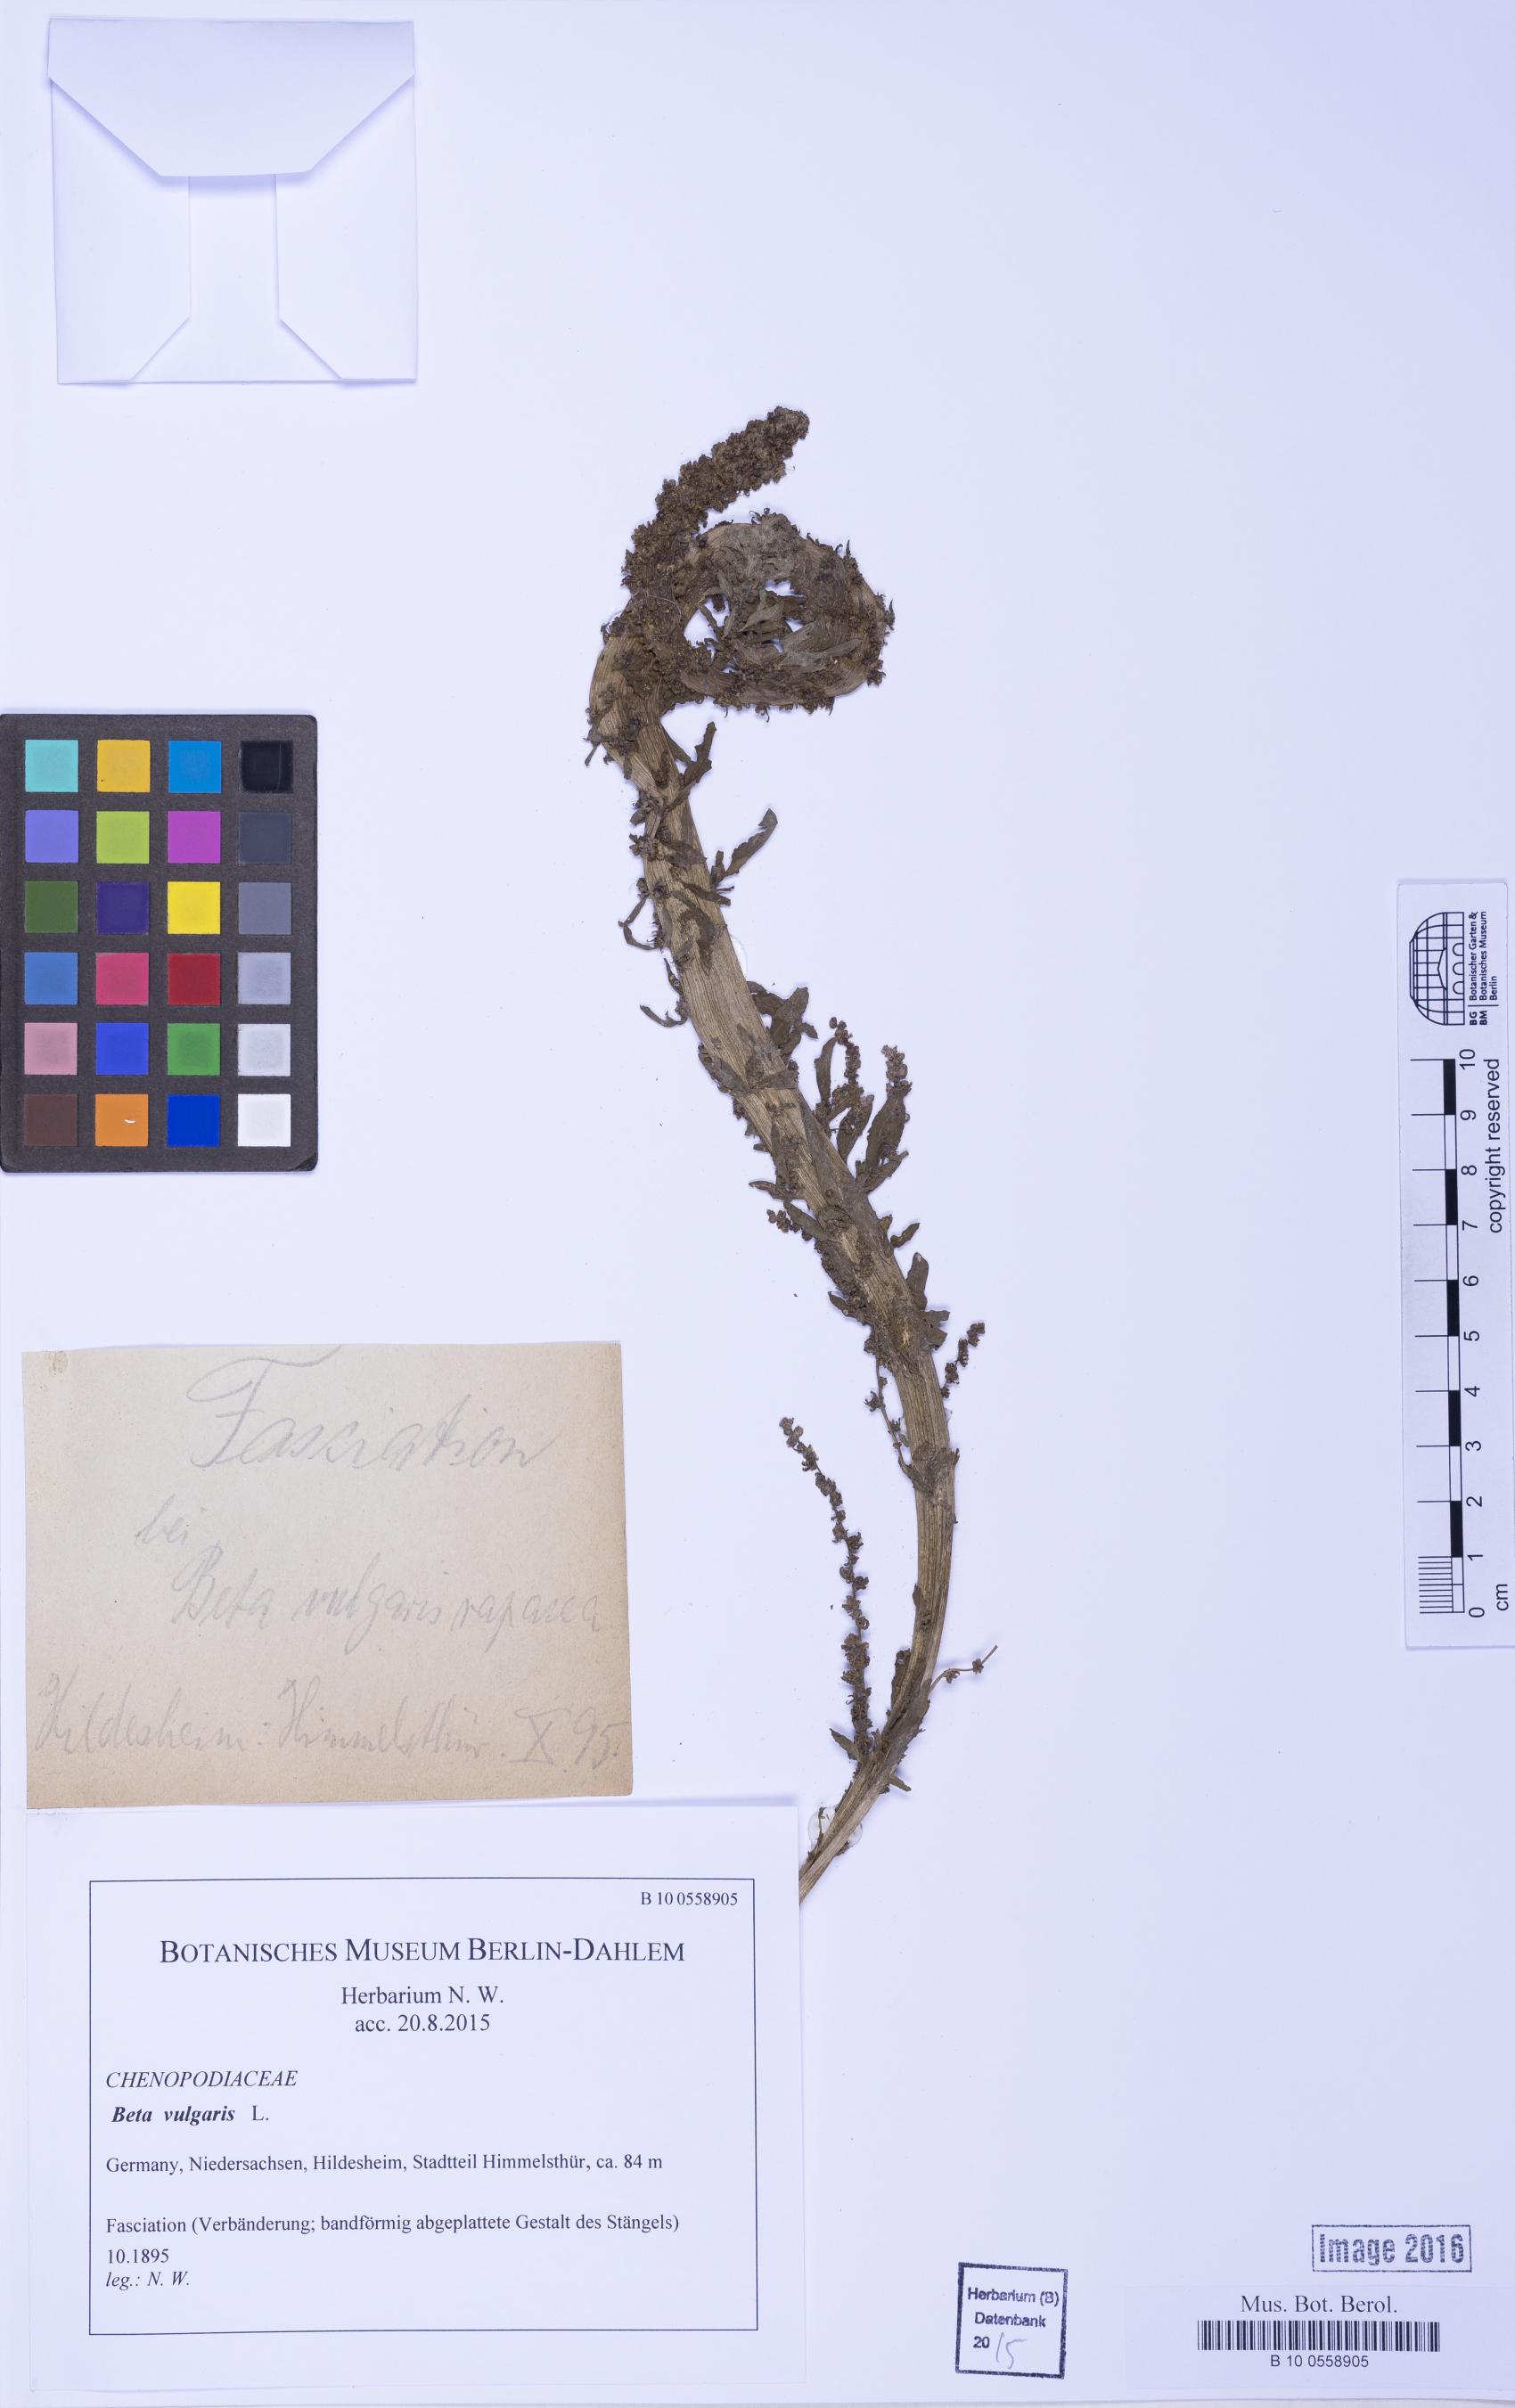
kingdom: Plantae
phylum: Tracheophyta
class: Magnoliopsida
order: Caryophyllales
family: Amaranthaceae
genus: Beta
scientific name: Beta vulgaris
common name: Beet
